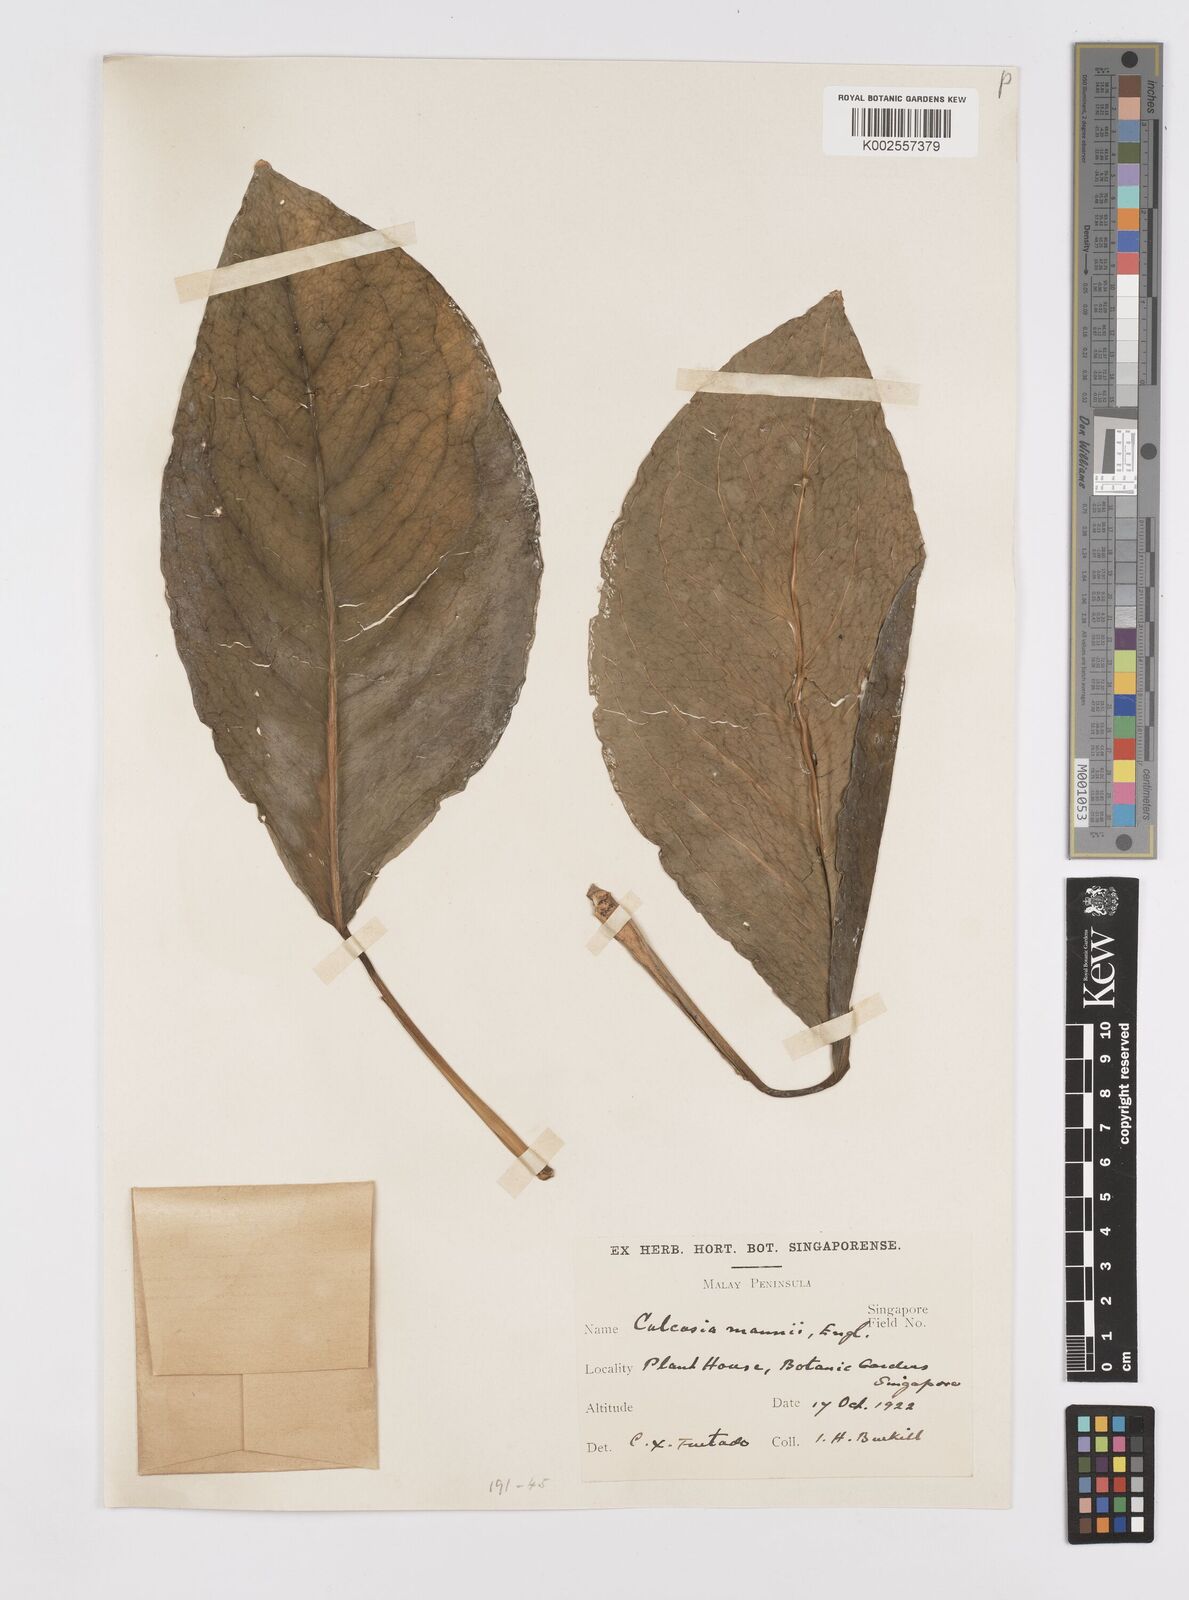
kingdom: Plantae
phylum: Tracheophyta
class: Liliopsida
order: Alismatales
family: Araceae
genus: Culcasia
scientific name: Culcasia mannii
